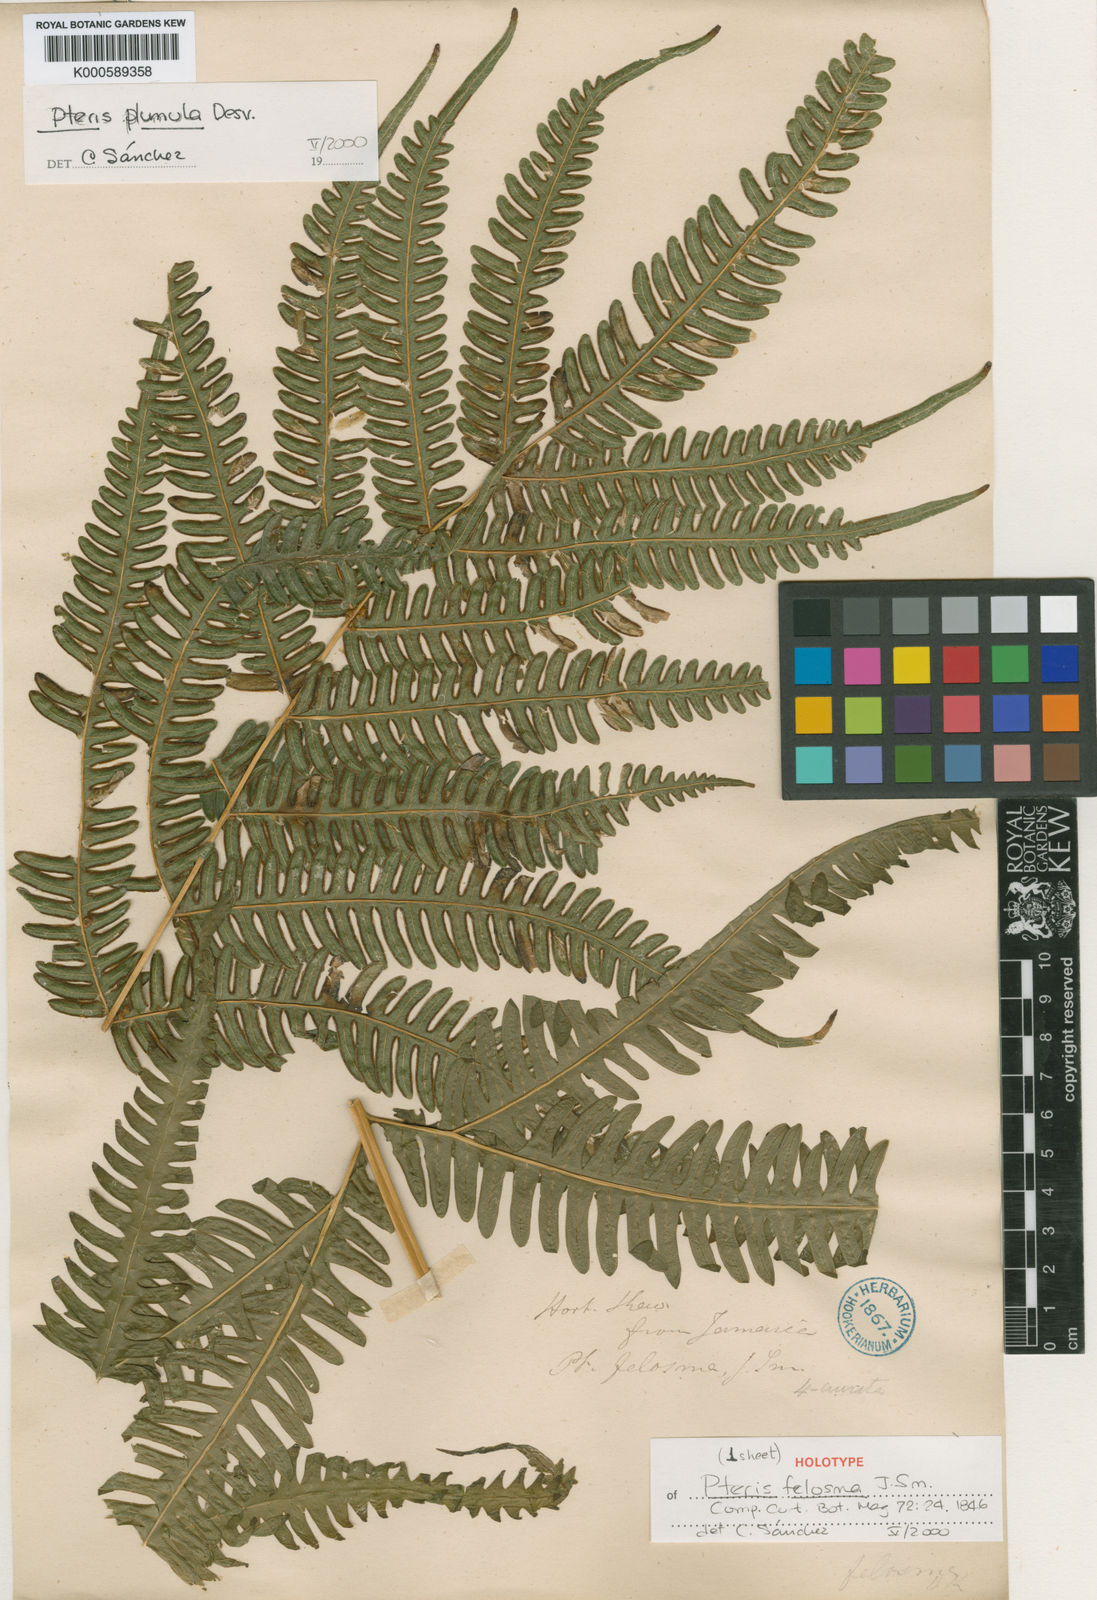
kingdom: Plantae
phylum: Tracheophyta
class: Polypodiopsida
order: Polypodiales
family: Pteridaceae
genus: Pteris
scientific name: Pteris quadriaurita
